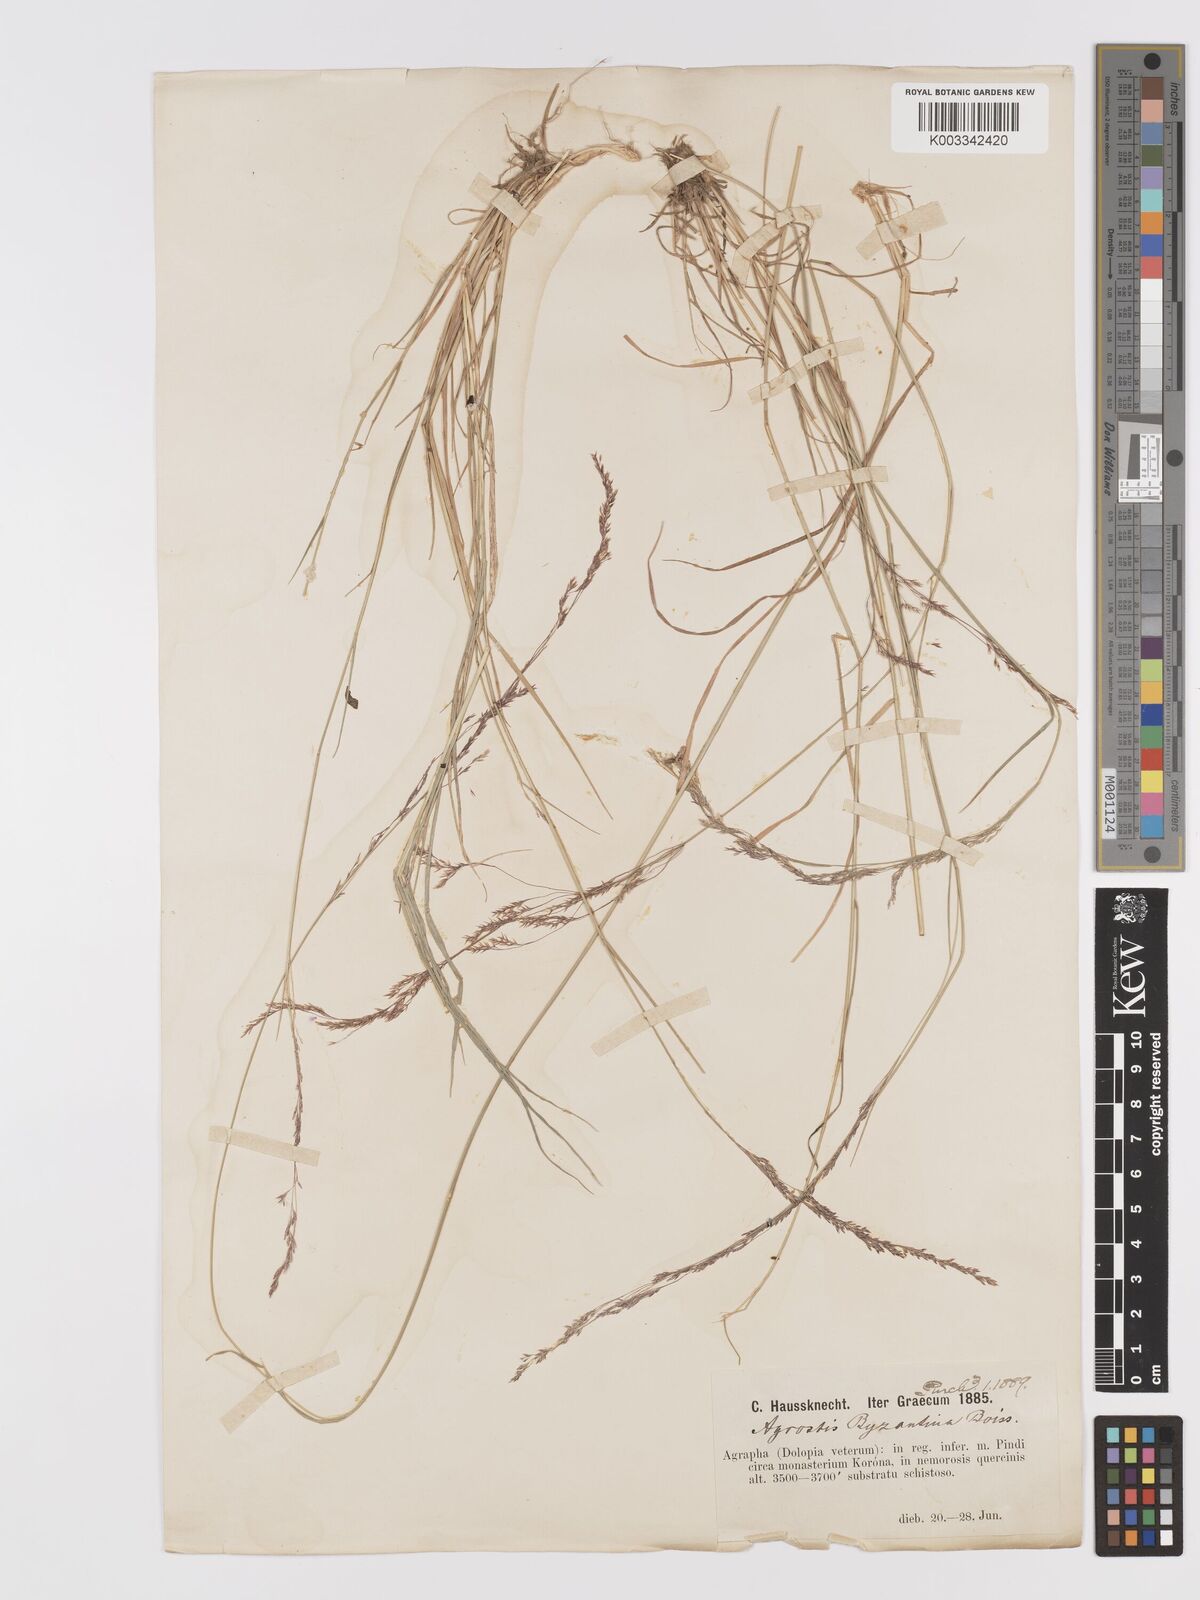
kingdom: Plantae
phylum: Tracheophyta
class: Liliopsida
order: Poales
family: Poaceae
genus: Agrostis
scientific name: Agrostis castellana
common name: Highland bent
